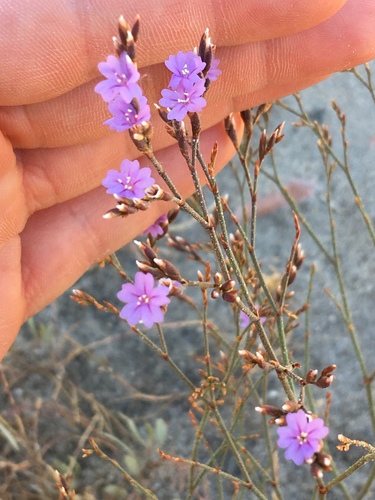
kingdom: Plantae
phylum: Tracheophyta
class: Magnoliopsida
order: Caryophyllales
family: Plumbaginaceae
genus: Limonium
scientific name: Limonium ovalifolium
